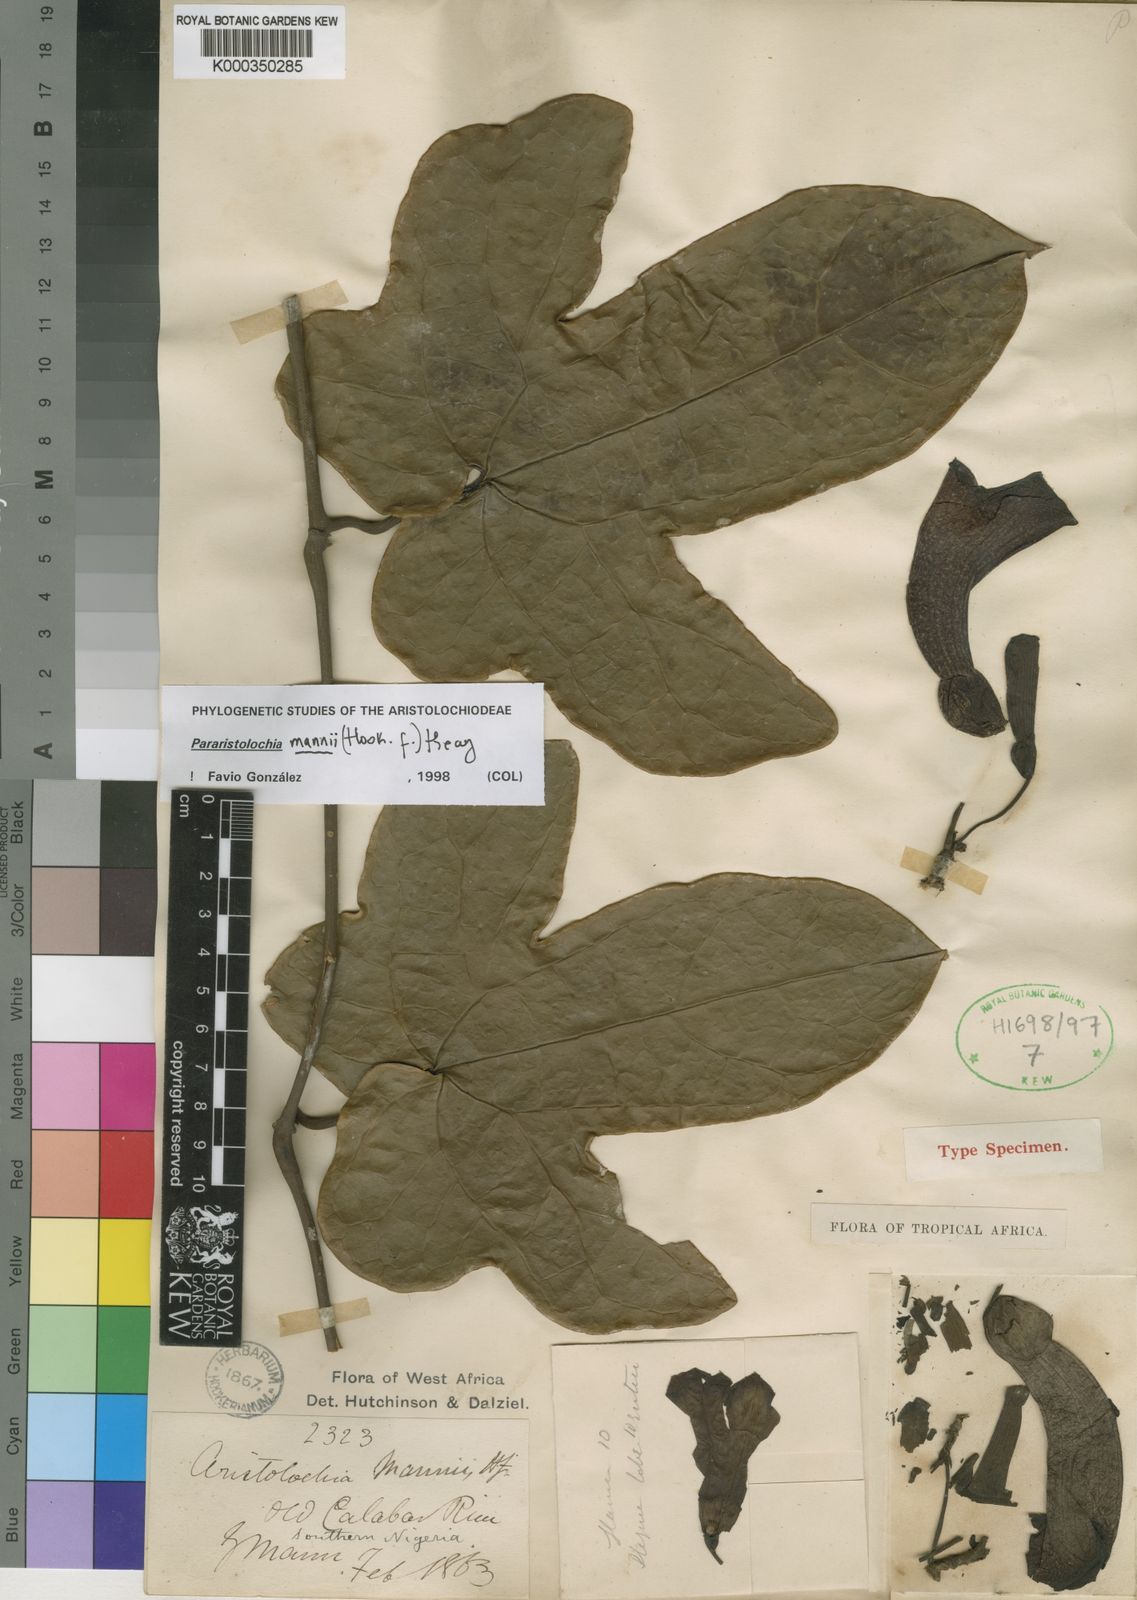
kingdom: Plantae
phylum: Tracheophyta
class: Magnoliopsida
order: Piperales
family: Aristolochiaceae
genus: Aristolochia
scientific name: Aristolochia mannii
